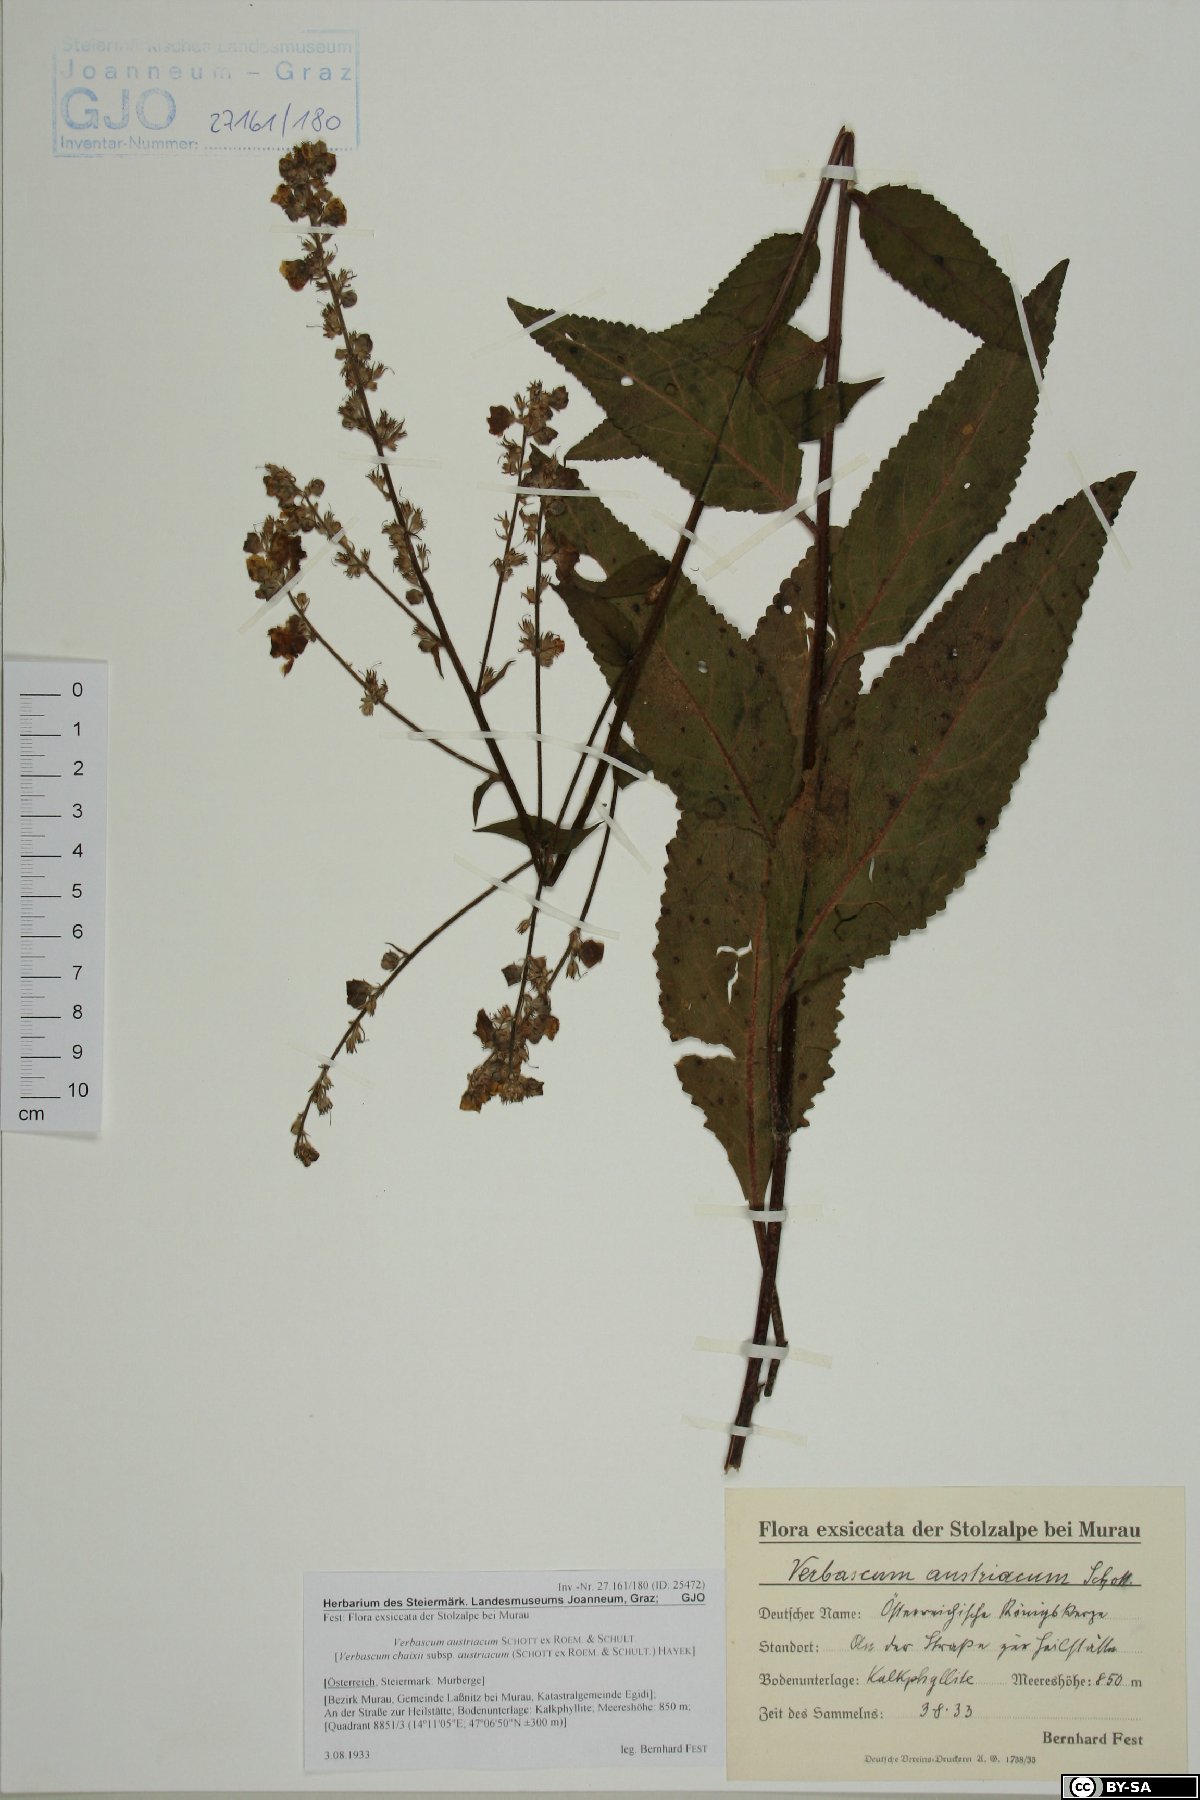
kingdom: Plantae
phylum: Tracheophyta
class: Magnoliopsida
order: Lamiales
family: Scrophulariaceae
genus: Verbascum
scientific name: Verbascum chaixii
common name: Nettle-leaved mullein
